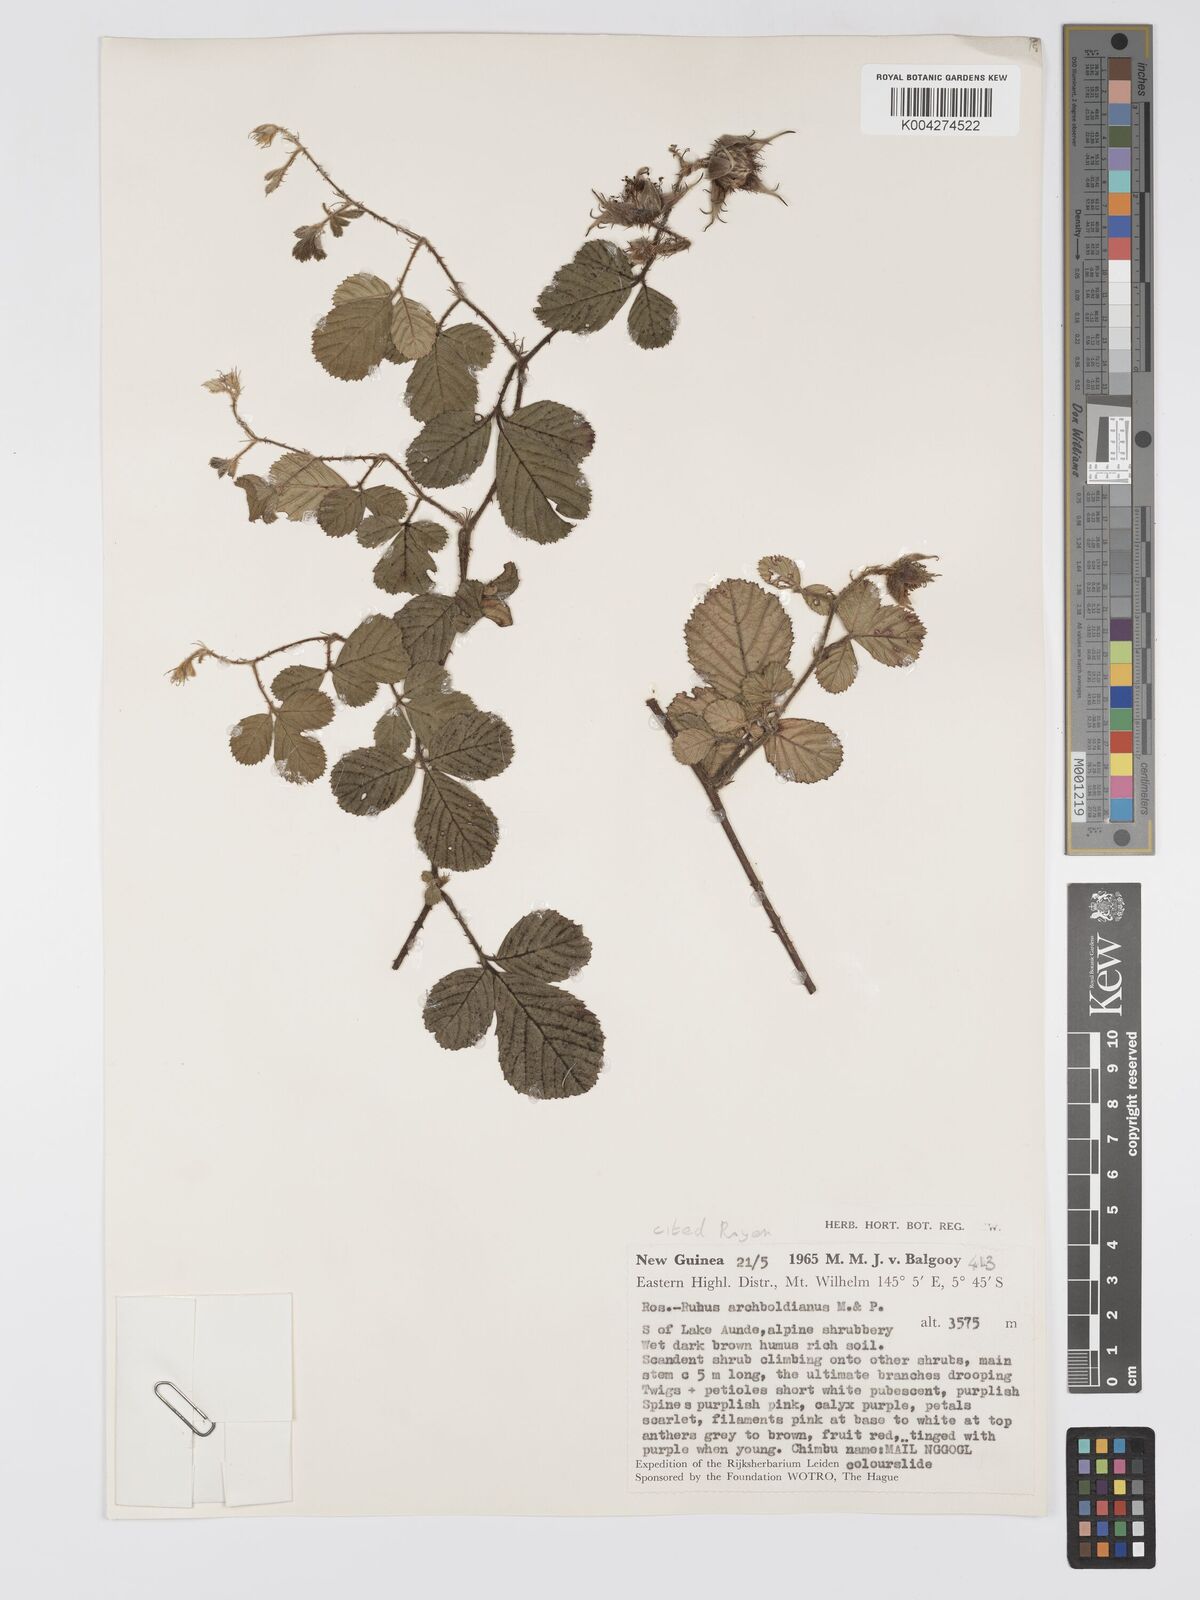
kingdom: Plantae
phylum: Tracheophyta
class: Magnoliopsida
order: Rosales
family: Rosaceae
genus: Rubus
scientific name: Rubus archboldianus
